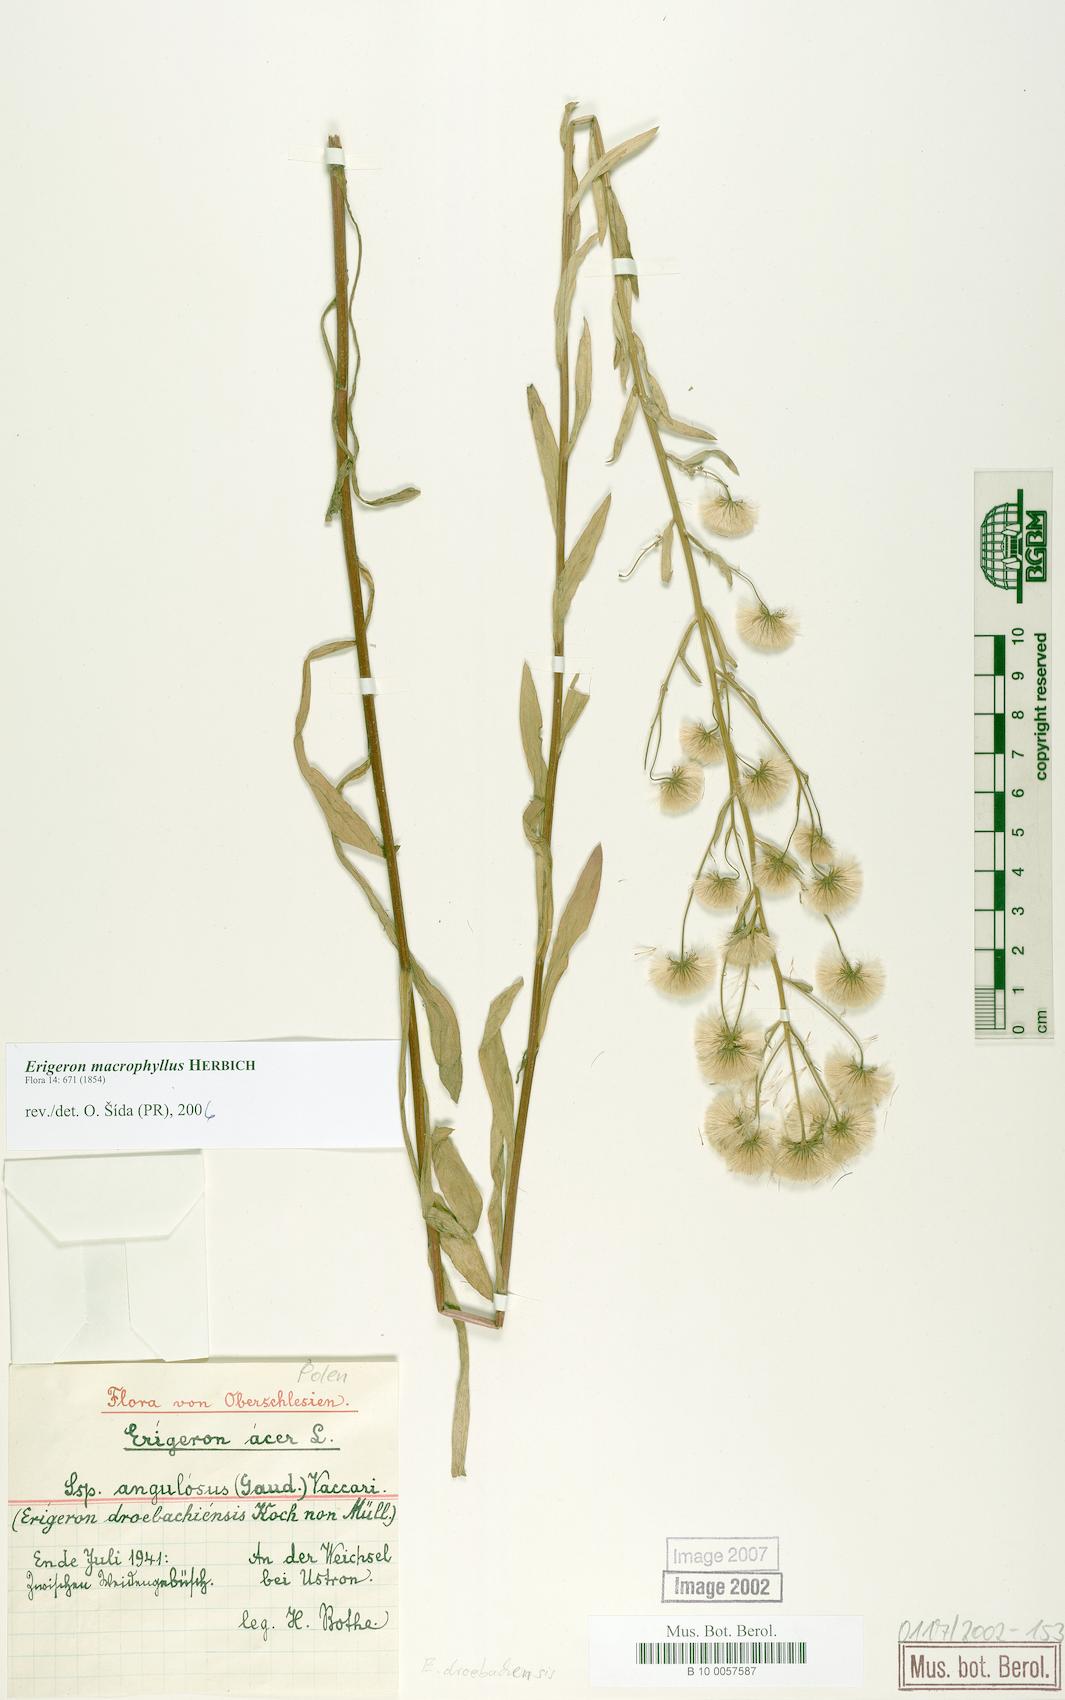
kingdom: Plantae
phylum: Tracheophyta
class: Magnoliopsida
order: Asterales
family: Asteraceae
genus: Erigeron
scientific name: Erigeron macrophyllus
